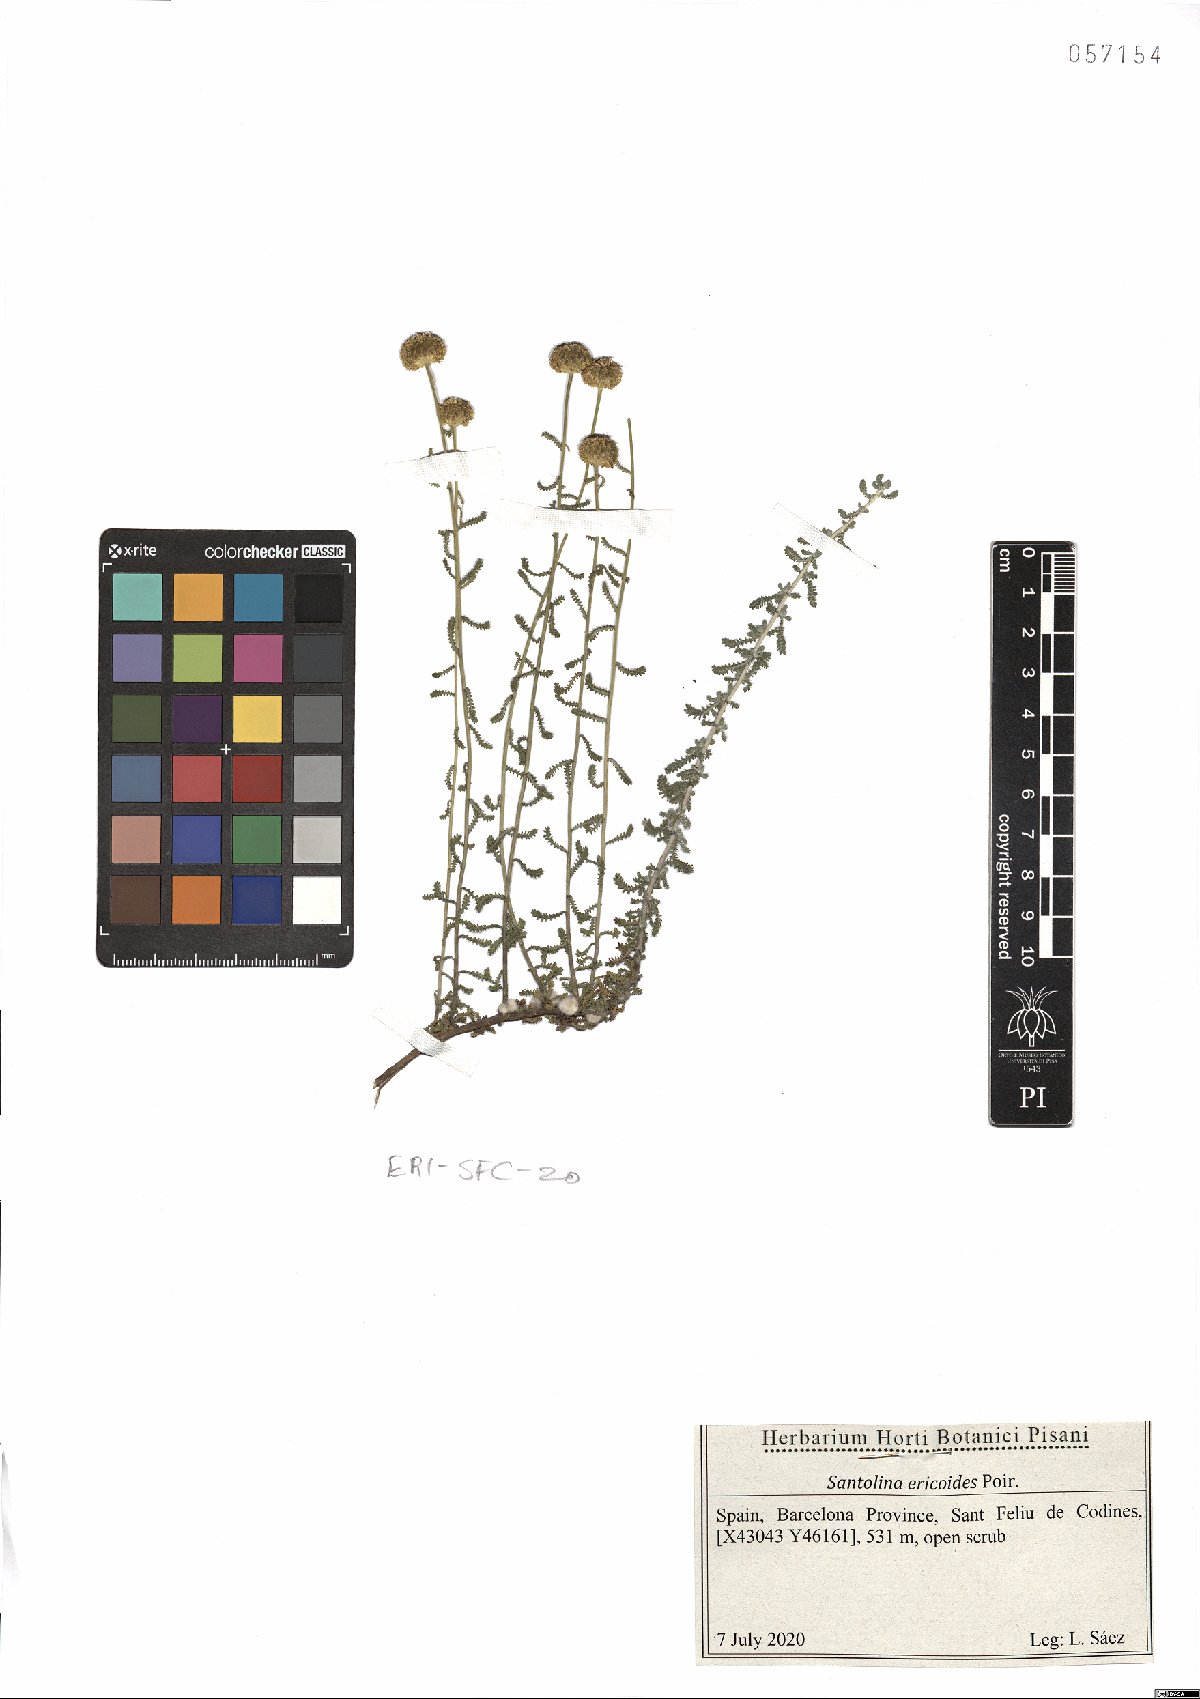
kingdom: Plantae
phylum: Tracheophyta
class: Magnoliopsida
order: Asterales
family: Asteraceae
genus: Santolina
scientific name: Santolina ericoides
